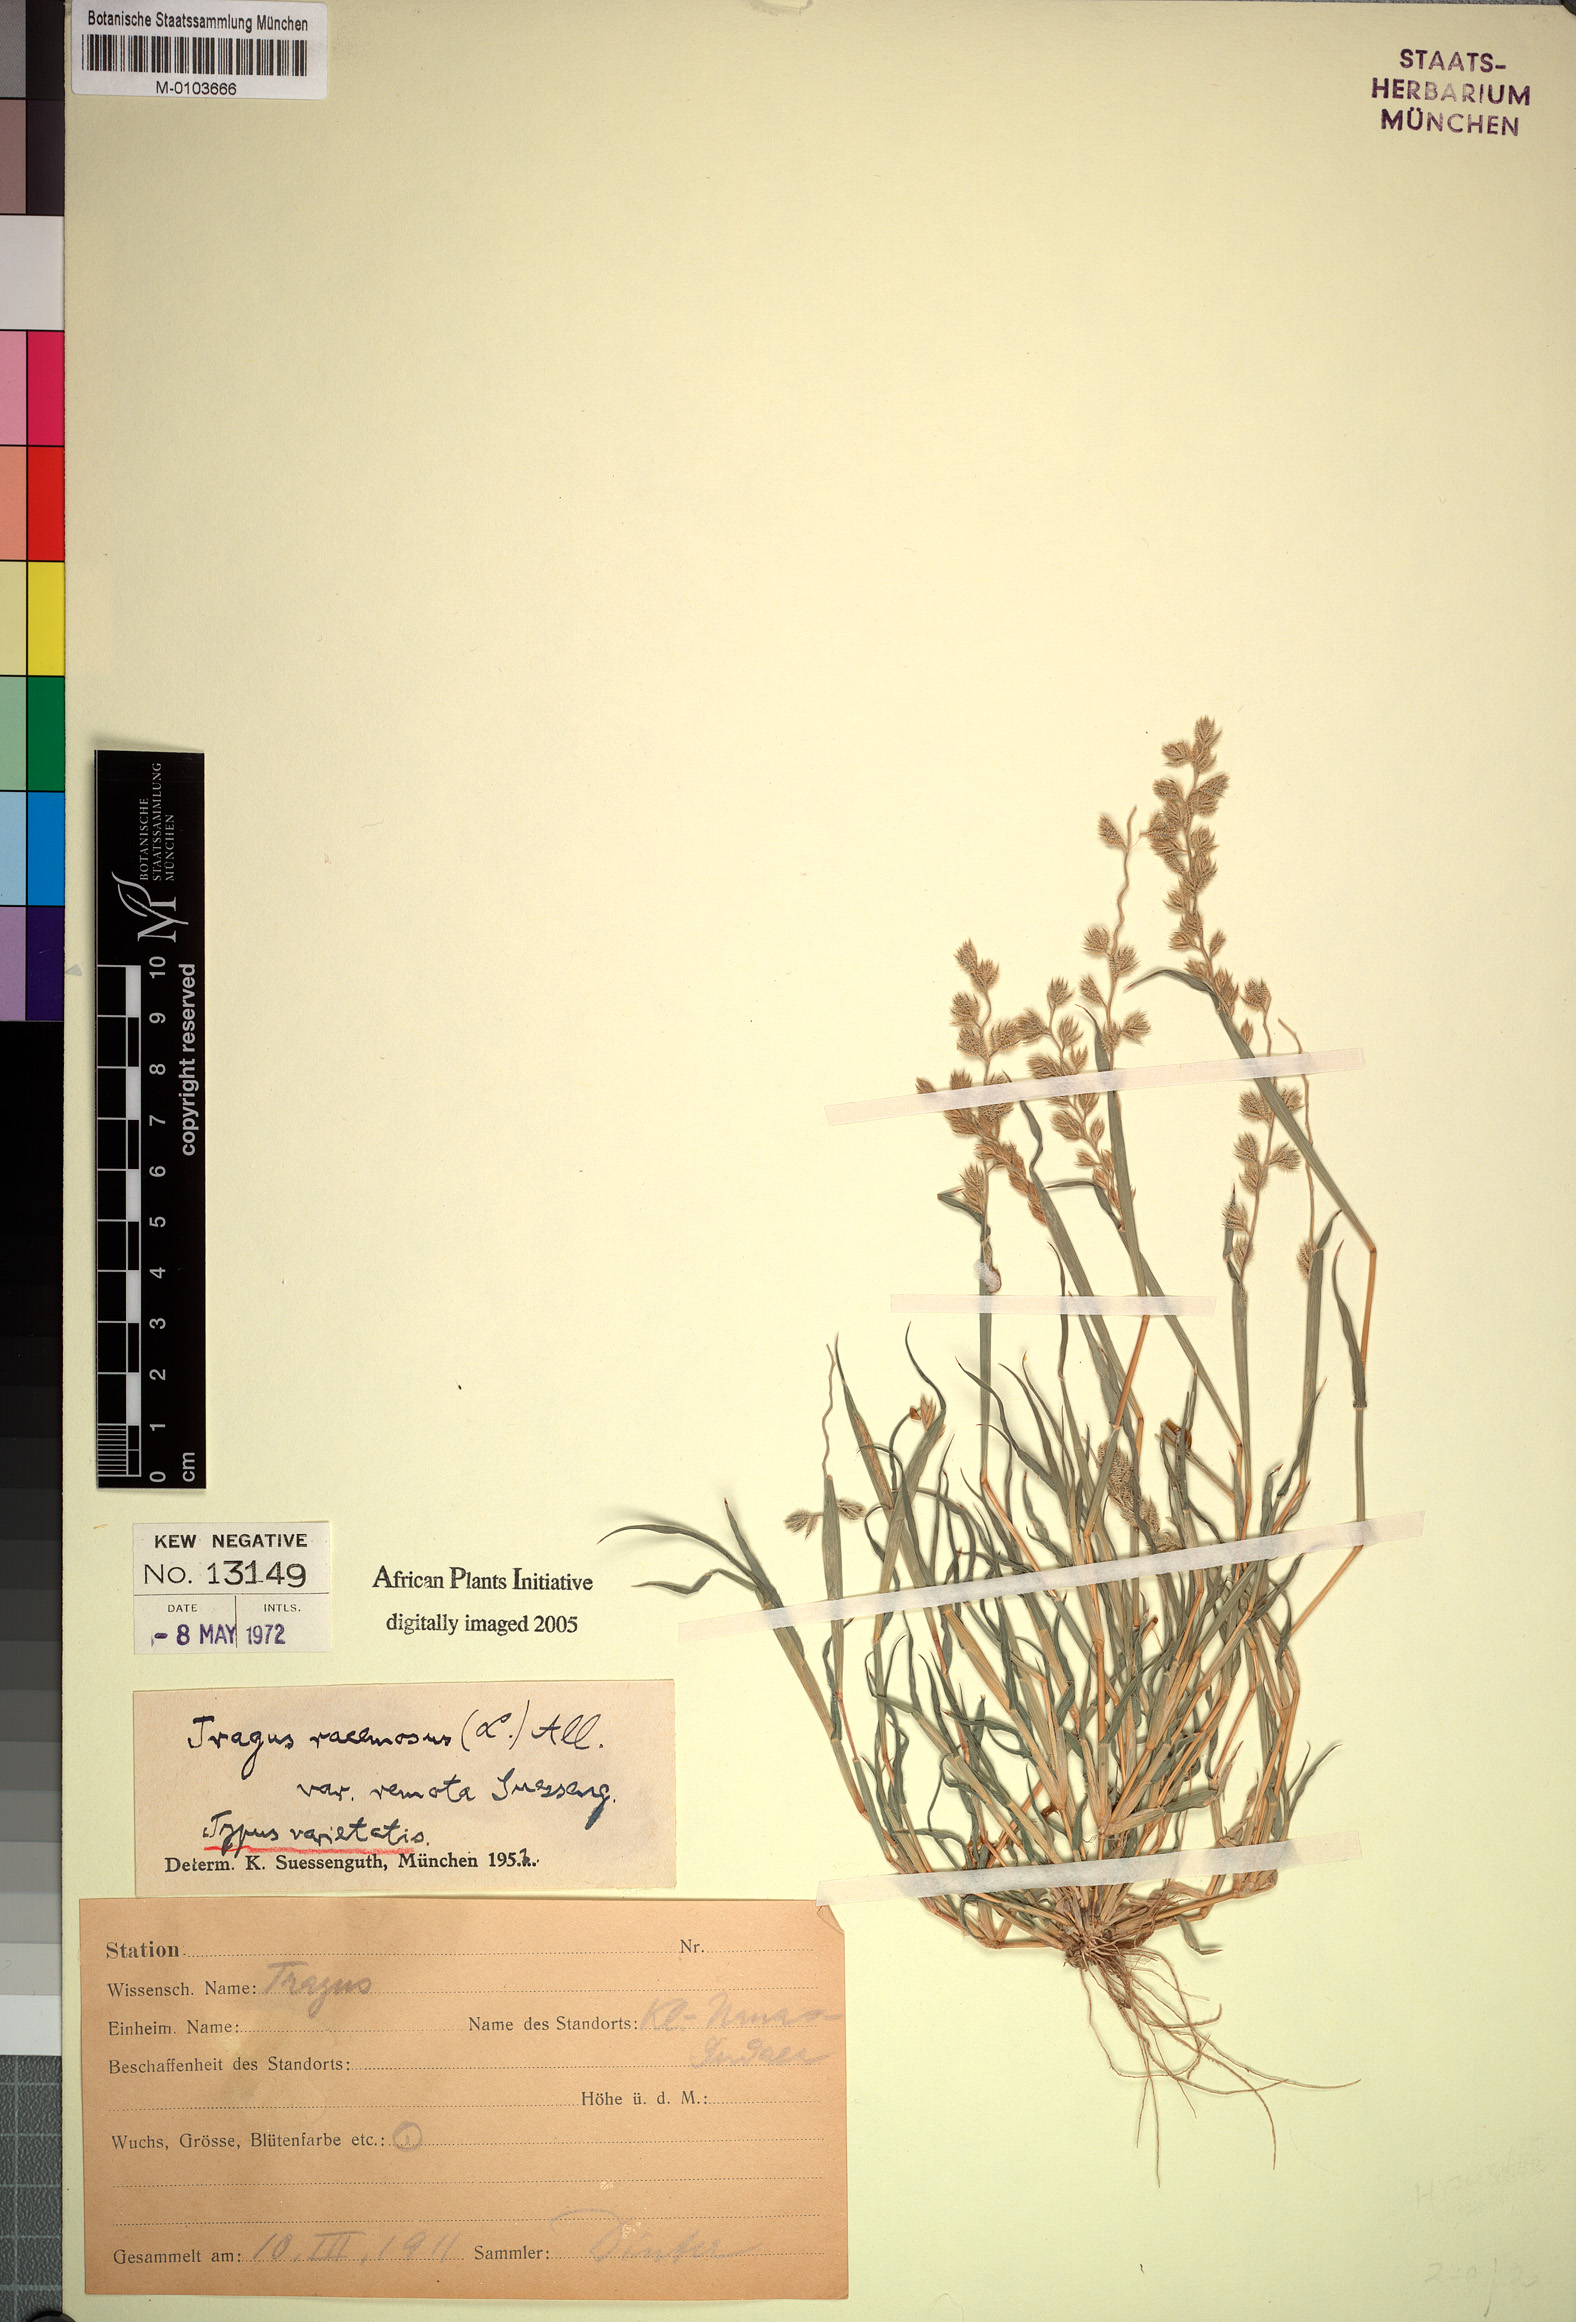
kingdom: Plantae
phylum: Tracheophyta
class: Liliopsida
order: Poales
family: Poaceae
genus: Tragus
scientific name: Tragus racemosus
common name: European bur-grass
